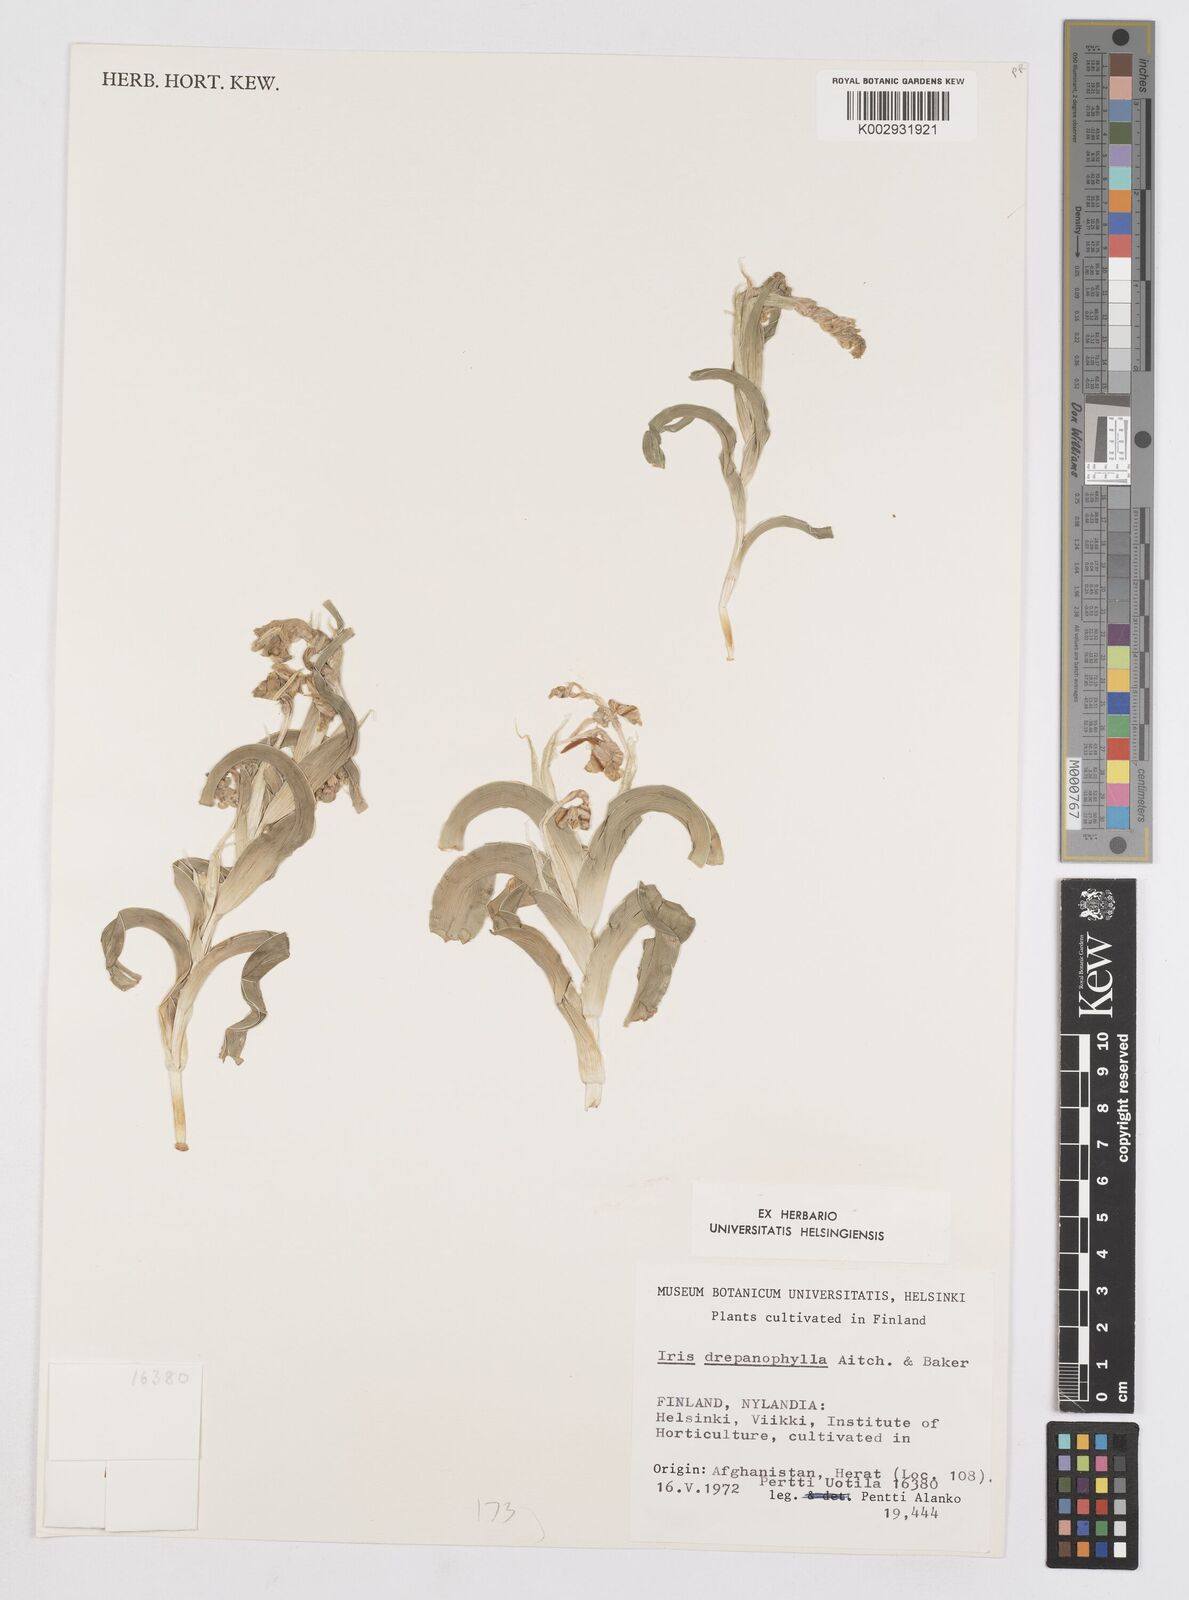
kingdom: Plantae
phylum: Tracheophyta
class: Liliopsida
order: Asparagales
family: Iridaceae
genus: Iris
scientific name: Iris drepanophylla
